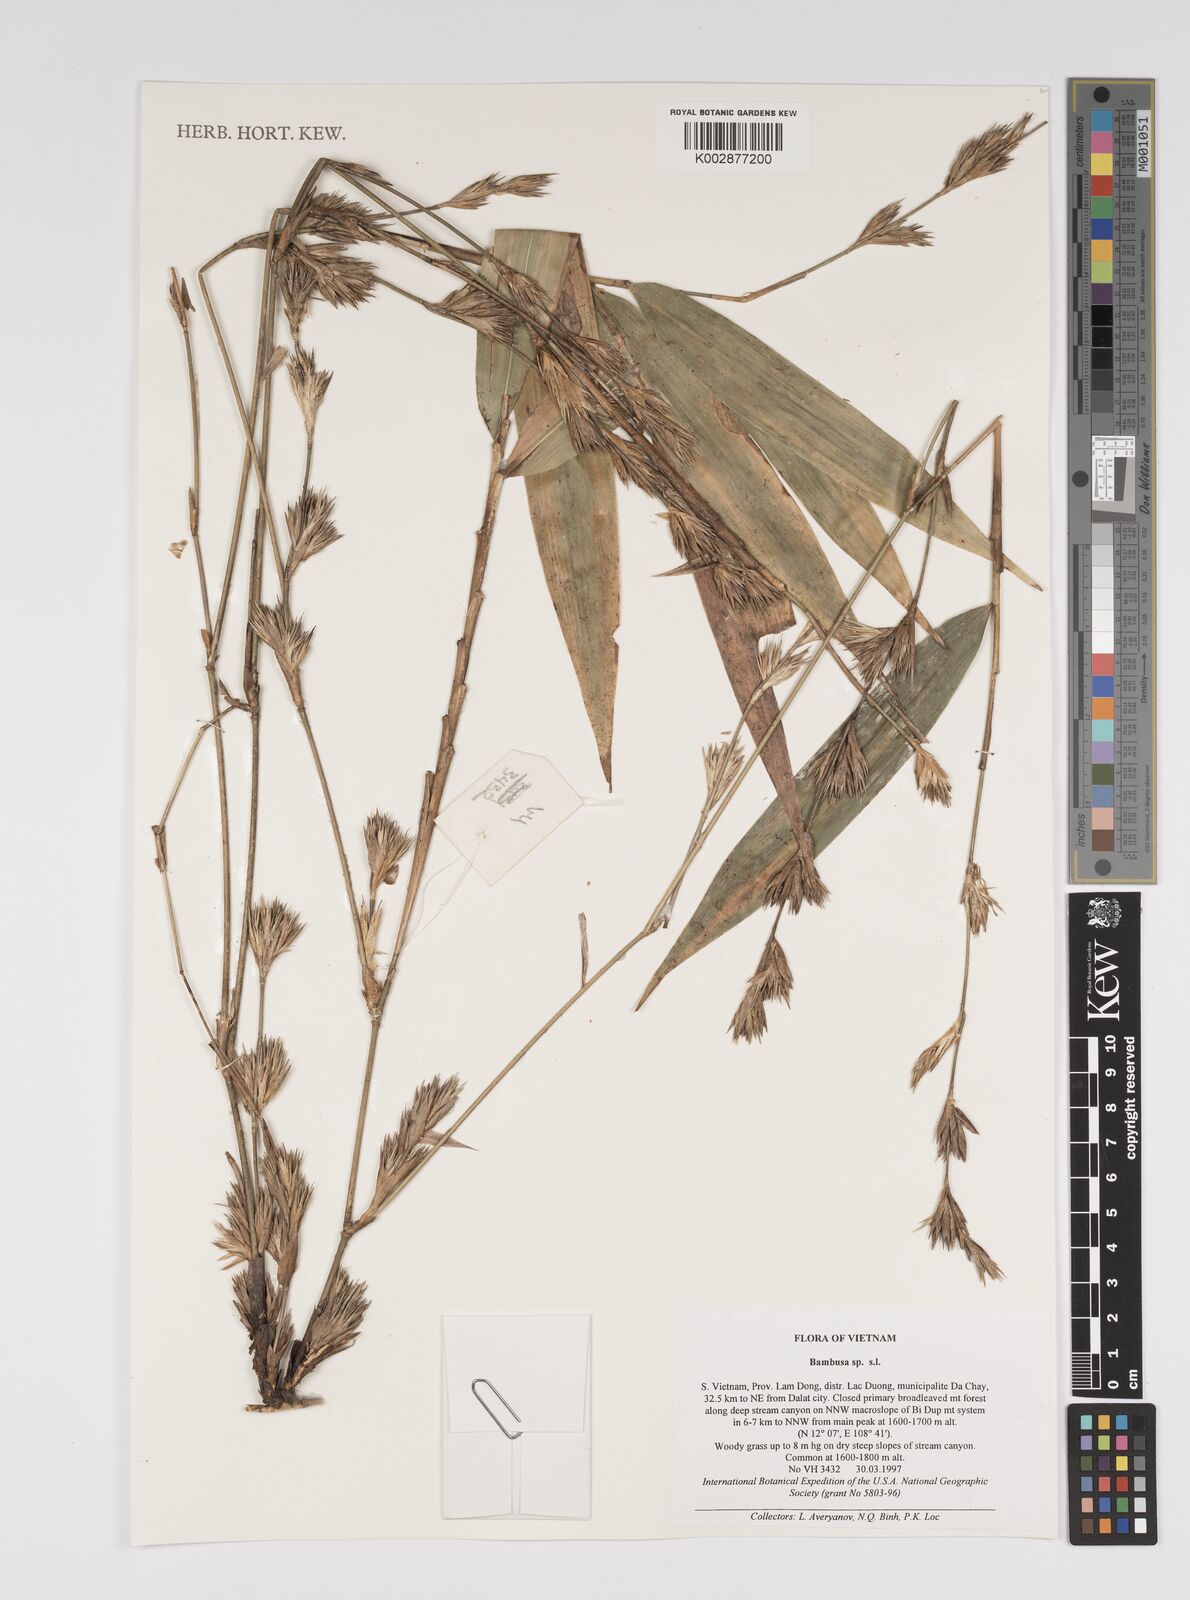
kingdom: Plantae
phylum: Tracheophyta
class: Liliopsida
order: Poales
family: Poaceae
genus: Bambusa
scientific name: Bambusa
